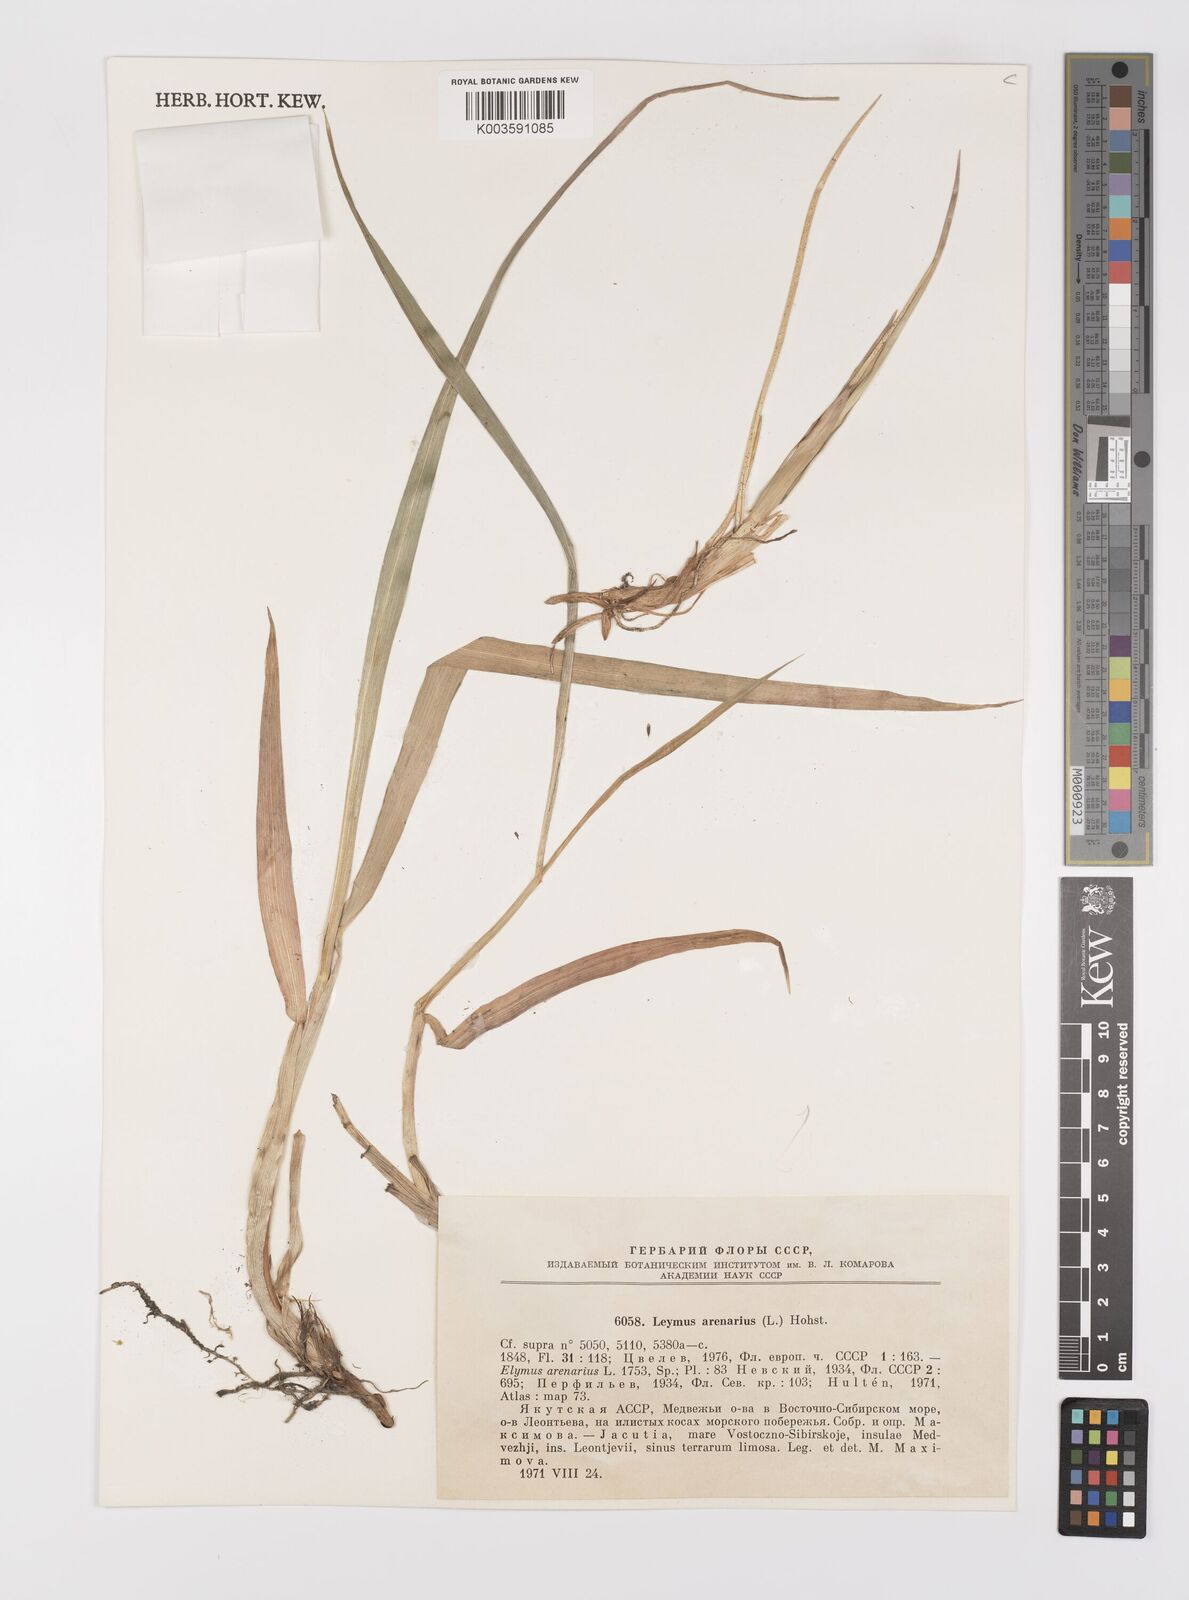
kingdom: Plantae
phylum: Tracheophyta
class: Liliopsida
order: Poales
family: Poaceae
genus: Leymus
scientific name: Leymus arenarius
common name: Lyme-grass
